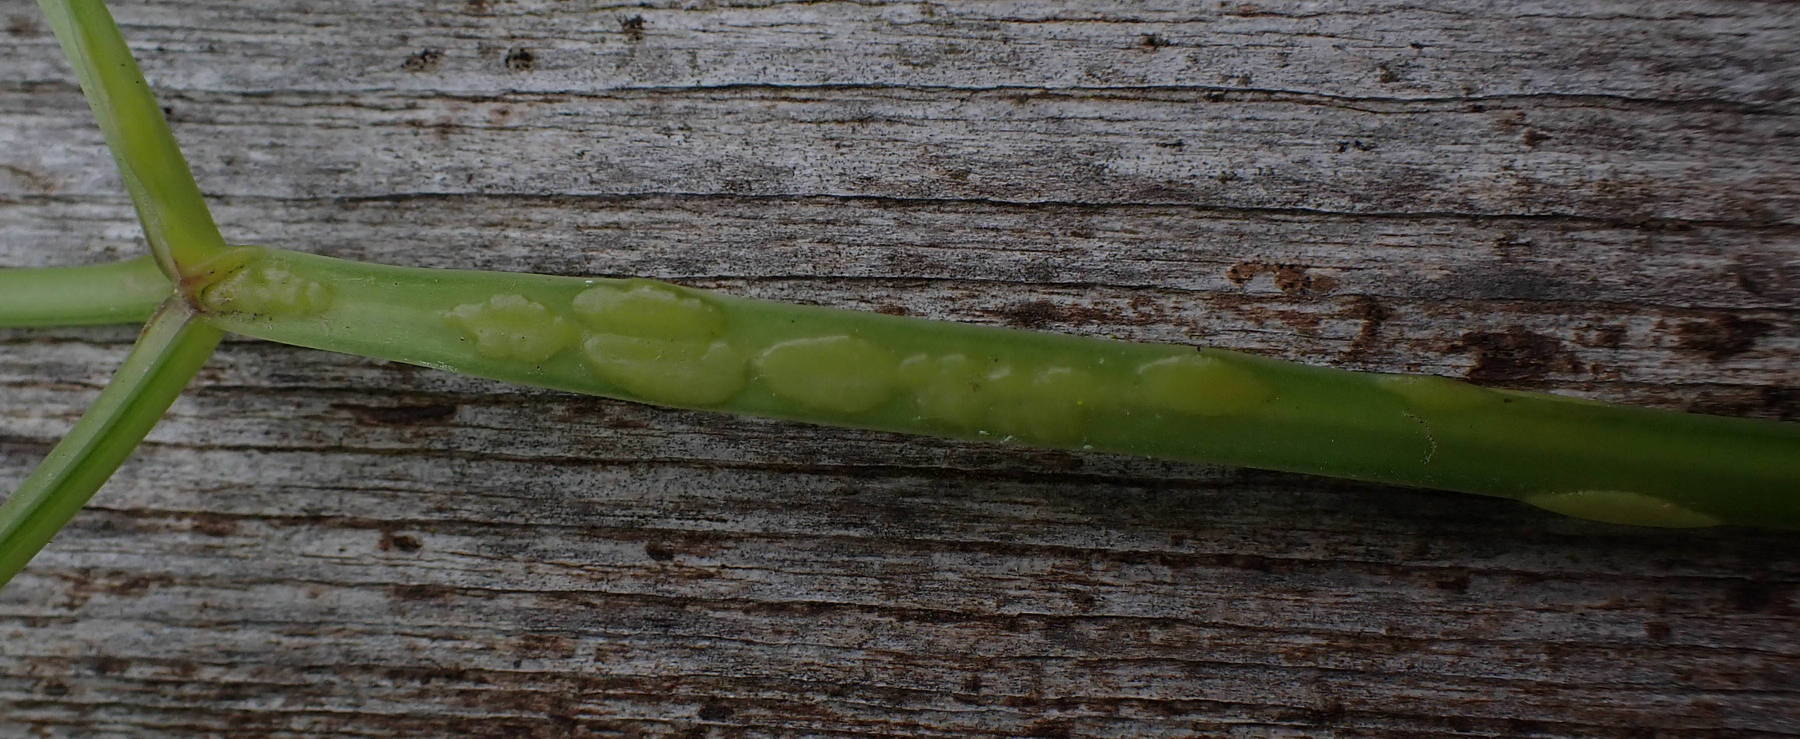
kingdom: Fungi
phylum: Ascomycota
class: Taphrinomycetes
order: Taphrinales
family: Taphrinaceae
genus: Protomyces
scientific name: Protomyces macrosporus
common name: skvalderkål-vablesæk
